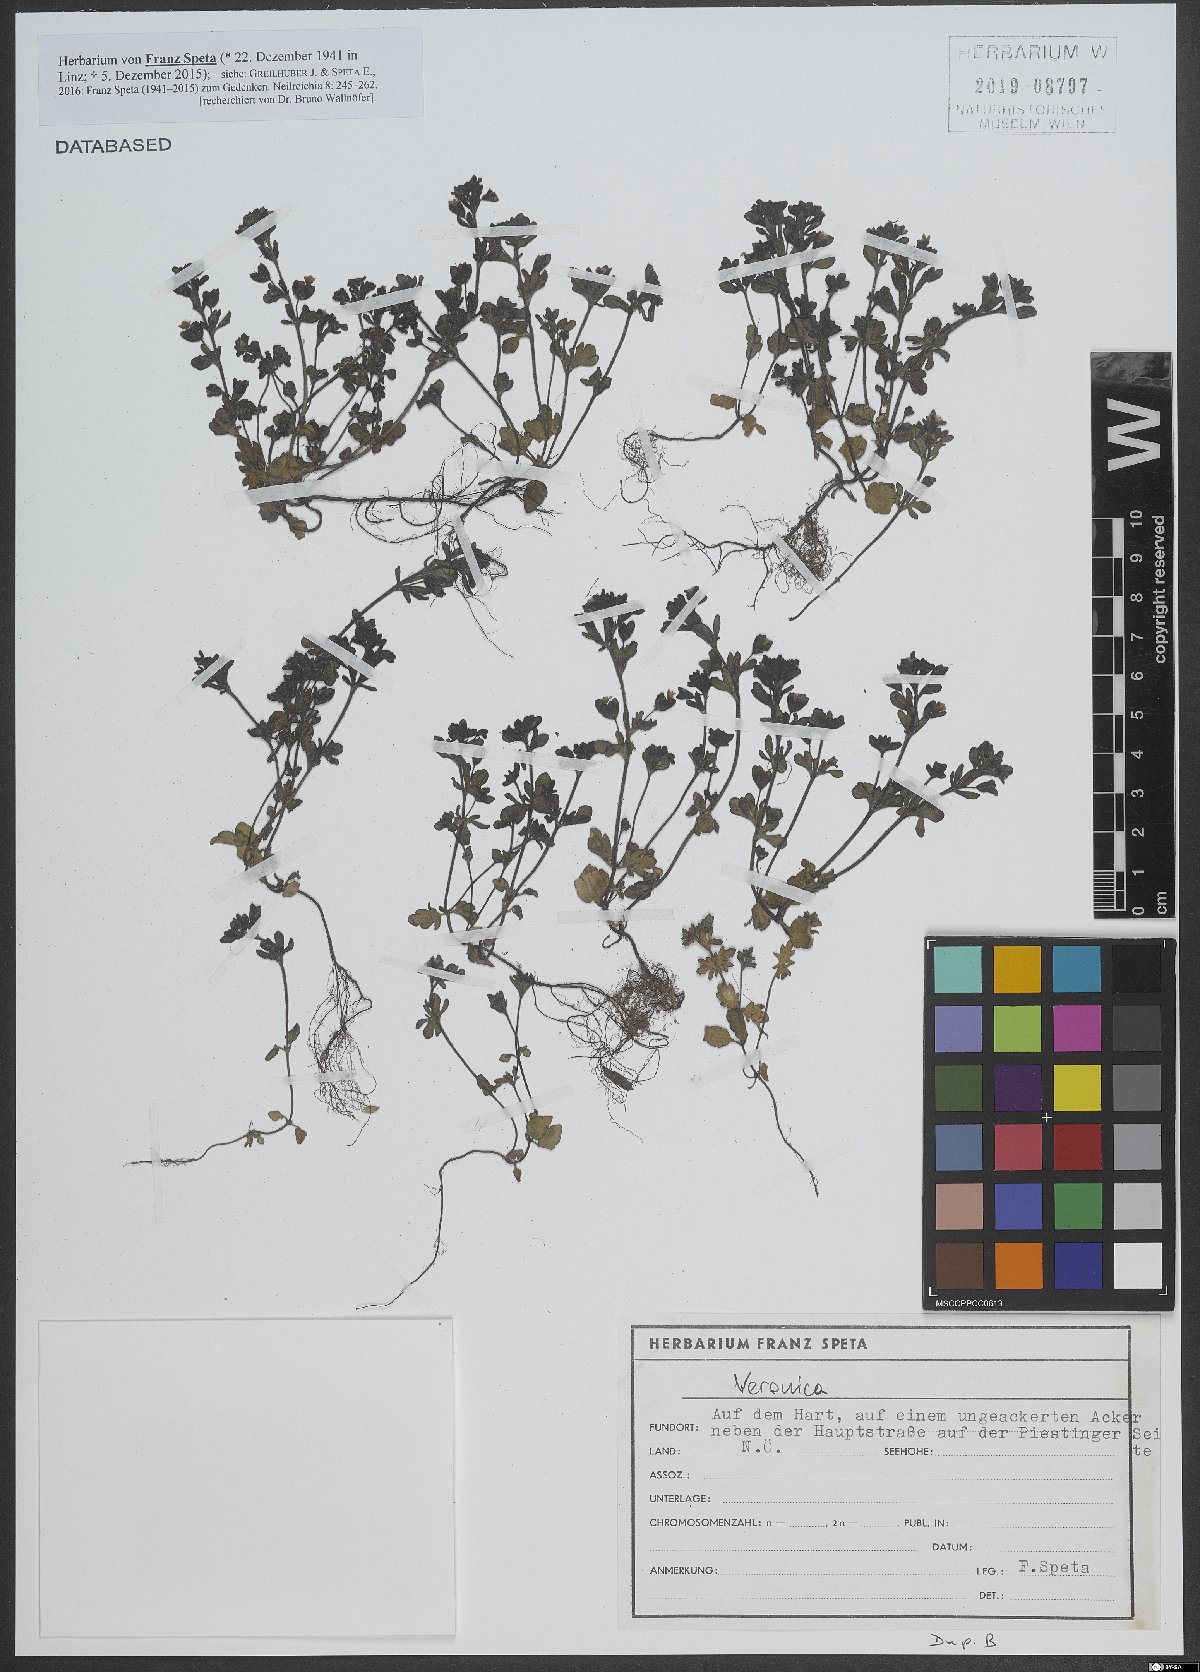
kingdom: Plantae
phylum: Tracheophyta
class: Magnoliopsida
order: Lamiales
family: Plantaginaceae
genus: Veronica
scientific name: Veronica
